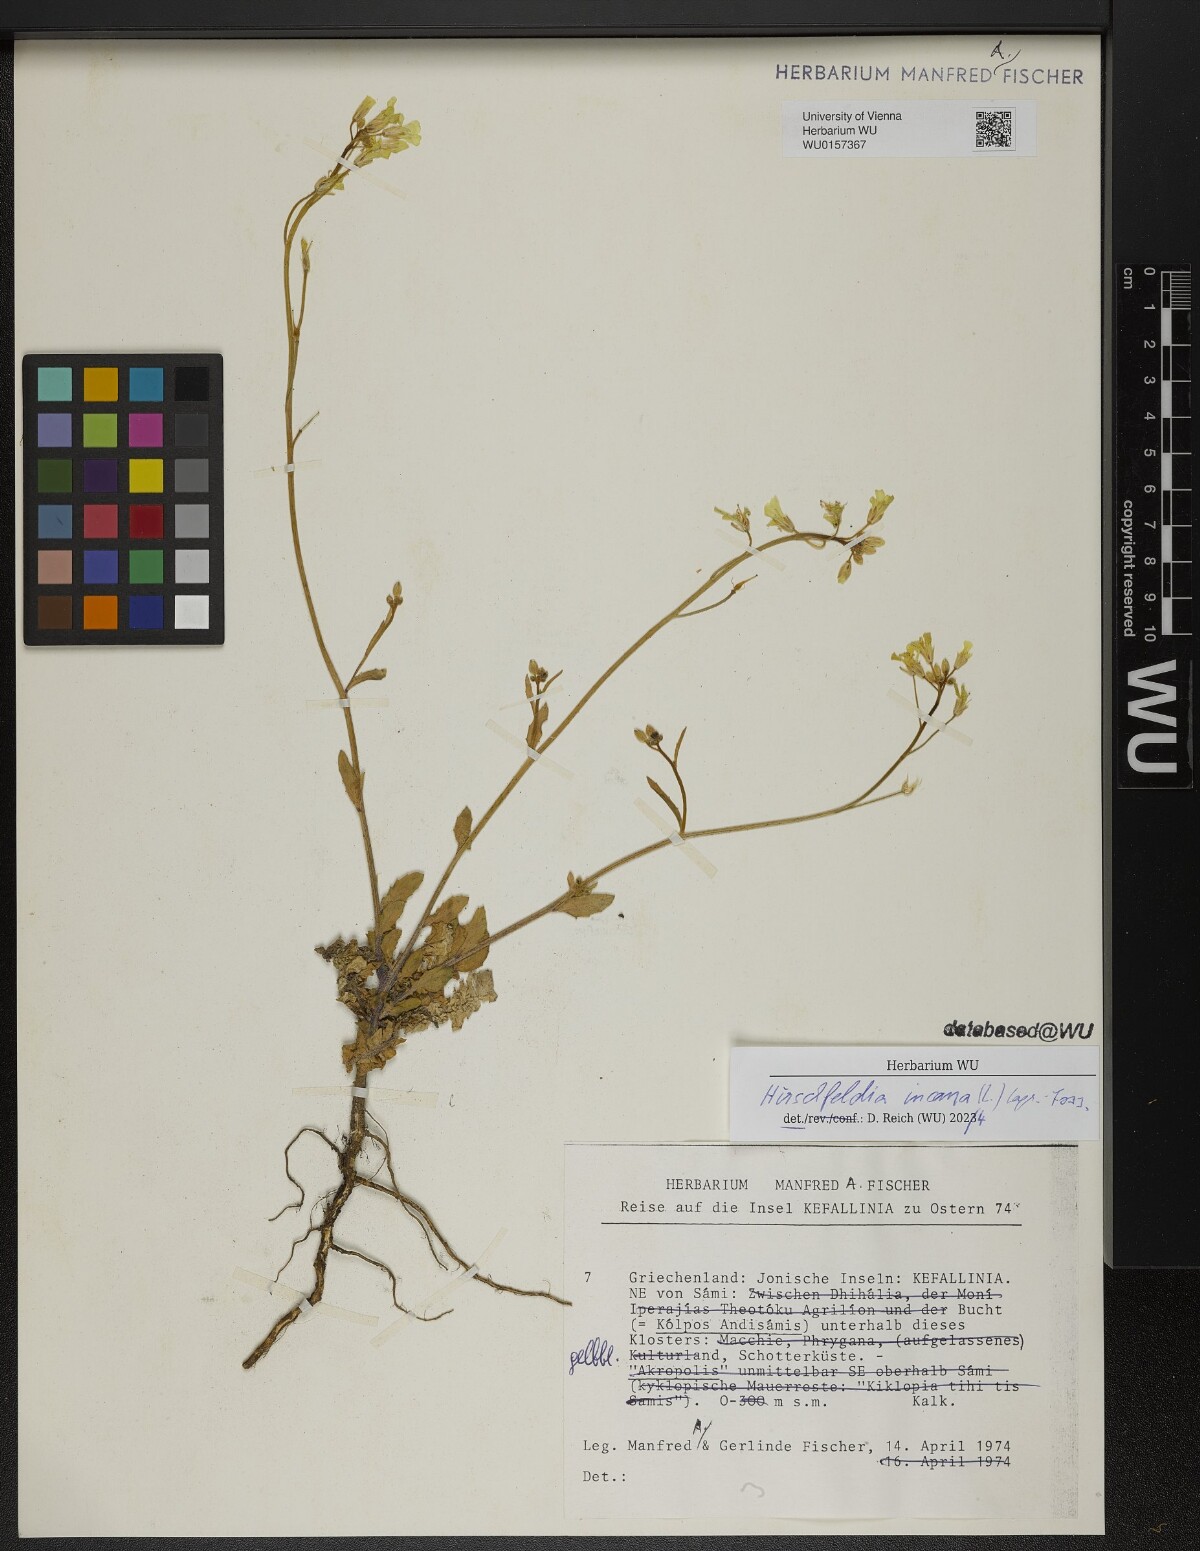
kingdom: Plantae
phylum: Tracheophyta
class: Magnoliopsida
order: Brassicales
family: Brassicaceae
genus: Hirschfeldia
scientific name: Hirschfeldia incana
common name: Hoary mustard
